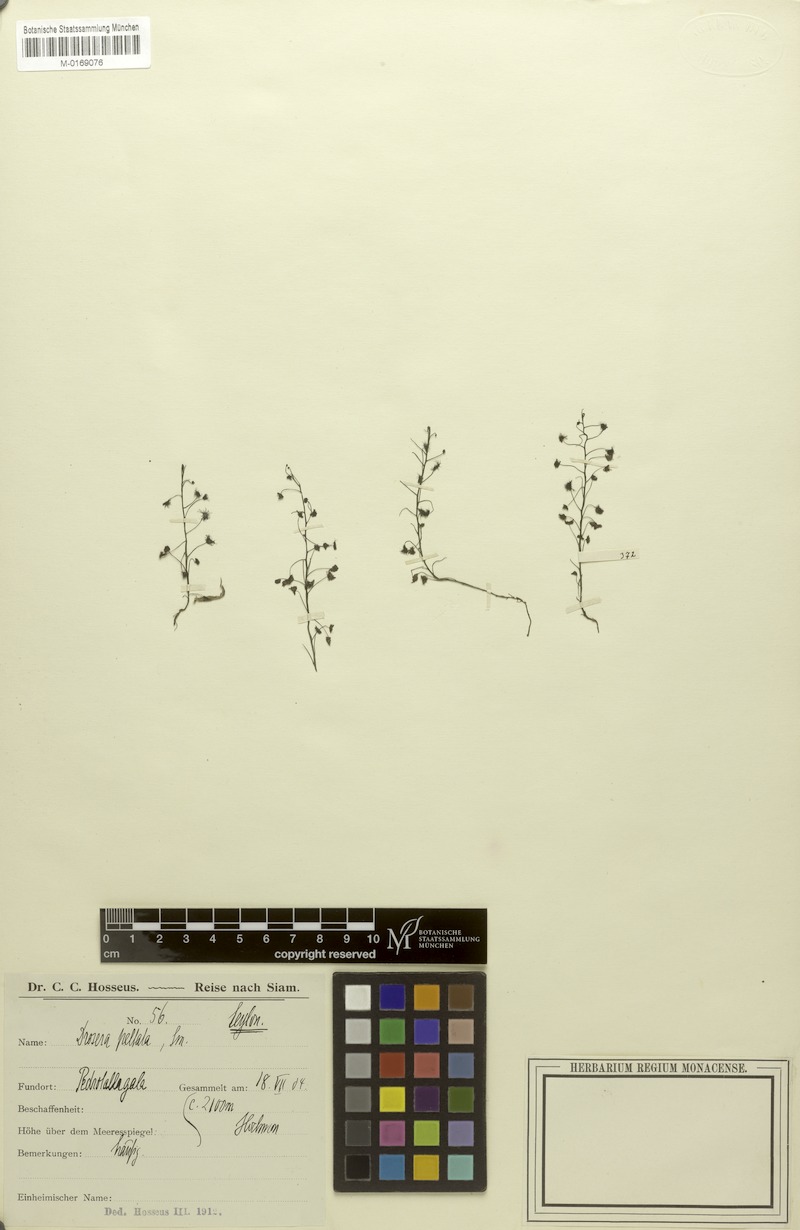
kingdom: Plantae
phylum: Tracheophyta
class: Magnoliopsida
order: Caryophyllales
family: Droseraceae
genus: Drosera
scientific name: Drosera peltata
